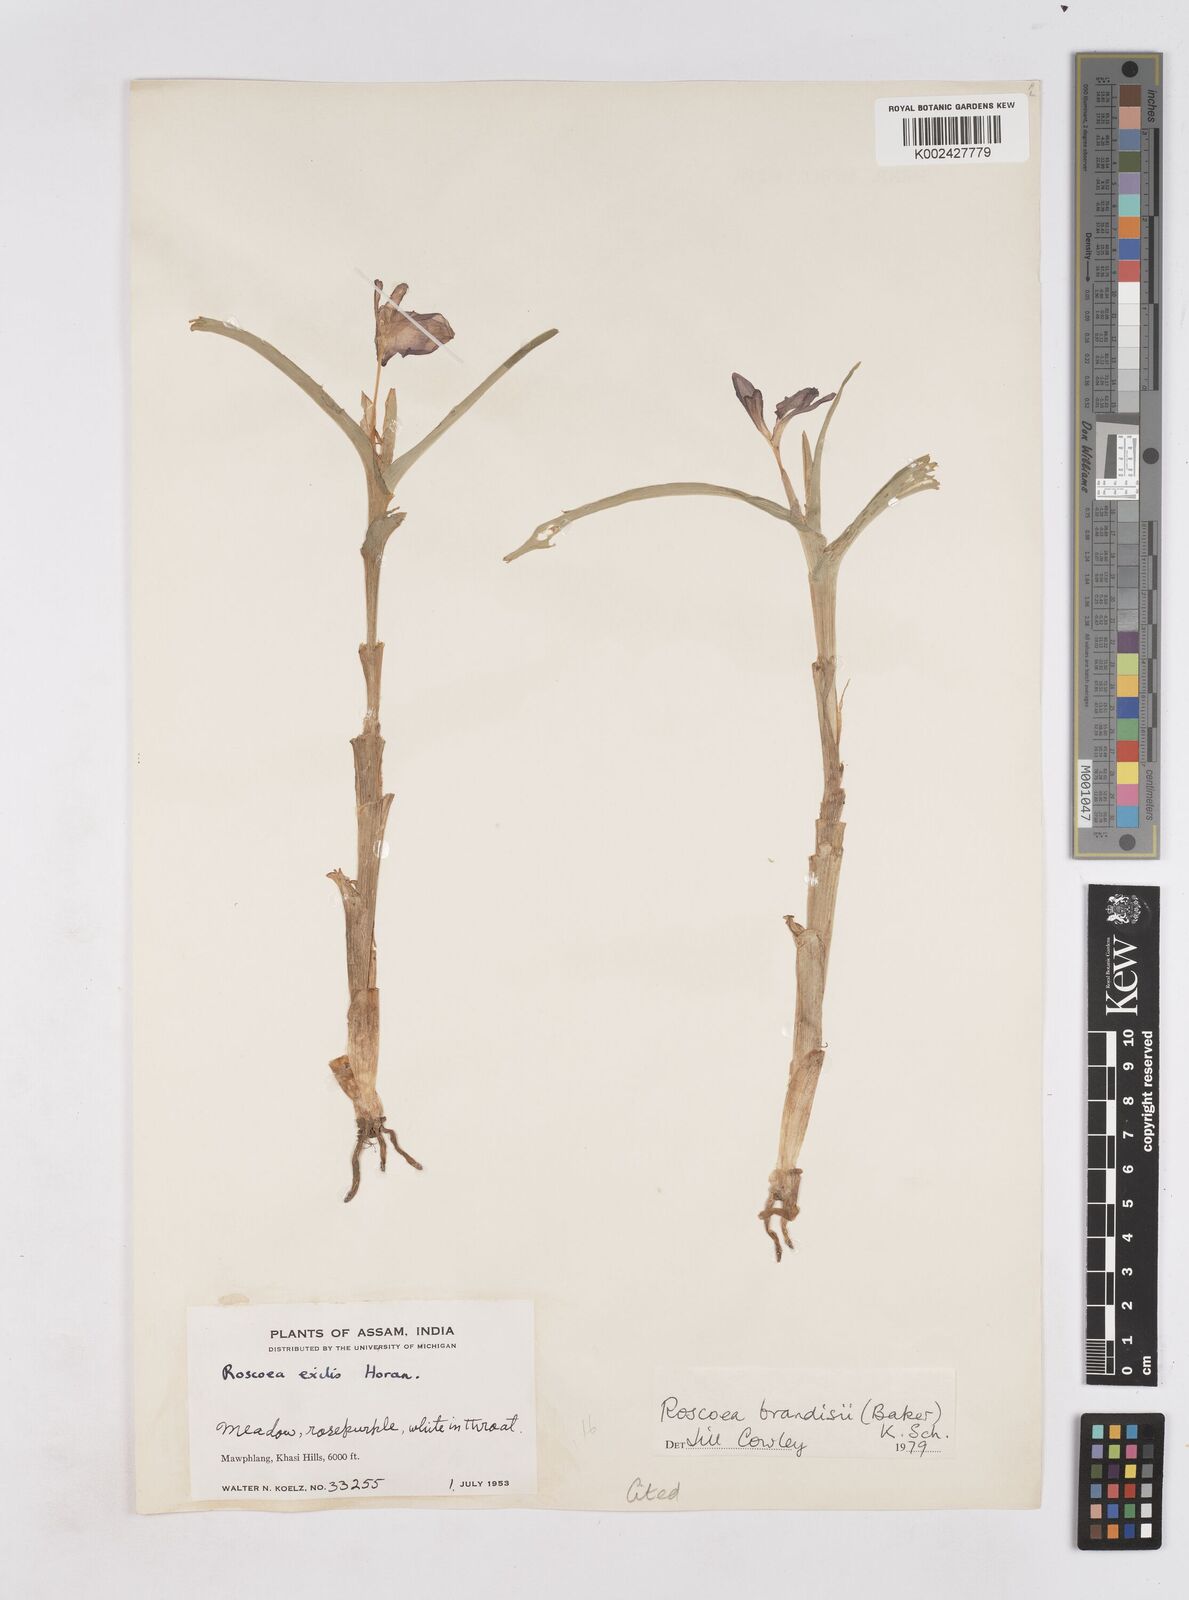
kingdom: Plantae
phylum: Tracheophyta
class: Liliopsida
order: Zingiberales
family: Zingiberaceae
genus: Roscoea
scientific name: Roscoea brandisii
